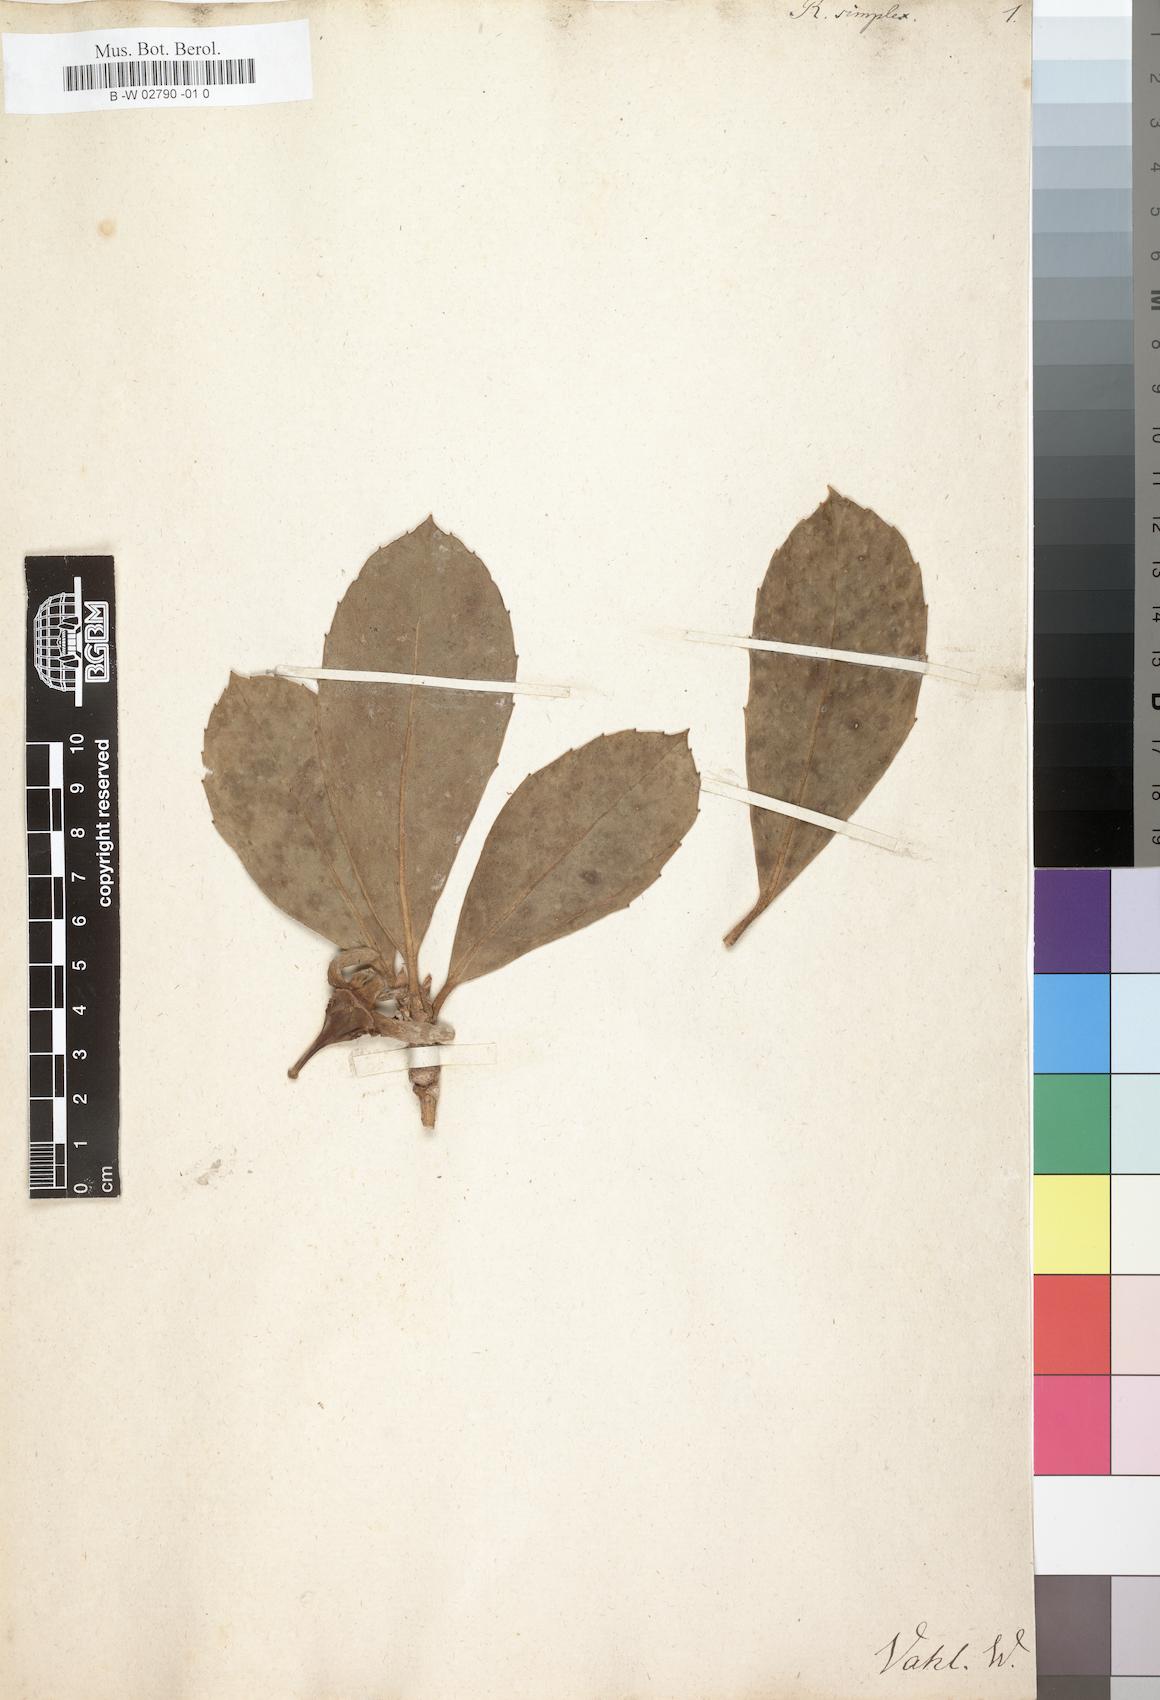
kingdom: Plantae
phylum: Tracheophyta
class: Magnoliopsida
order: Asterales
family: Rousseaceae
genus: Roussea
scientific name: Roussea simplex
